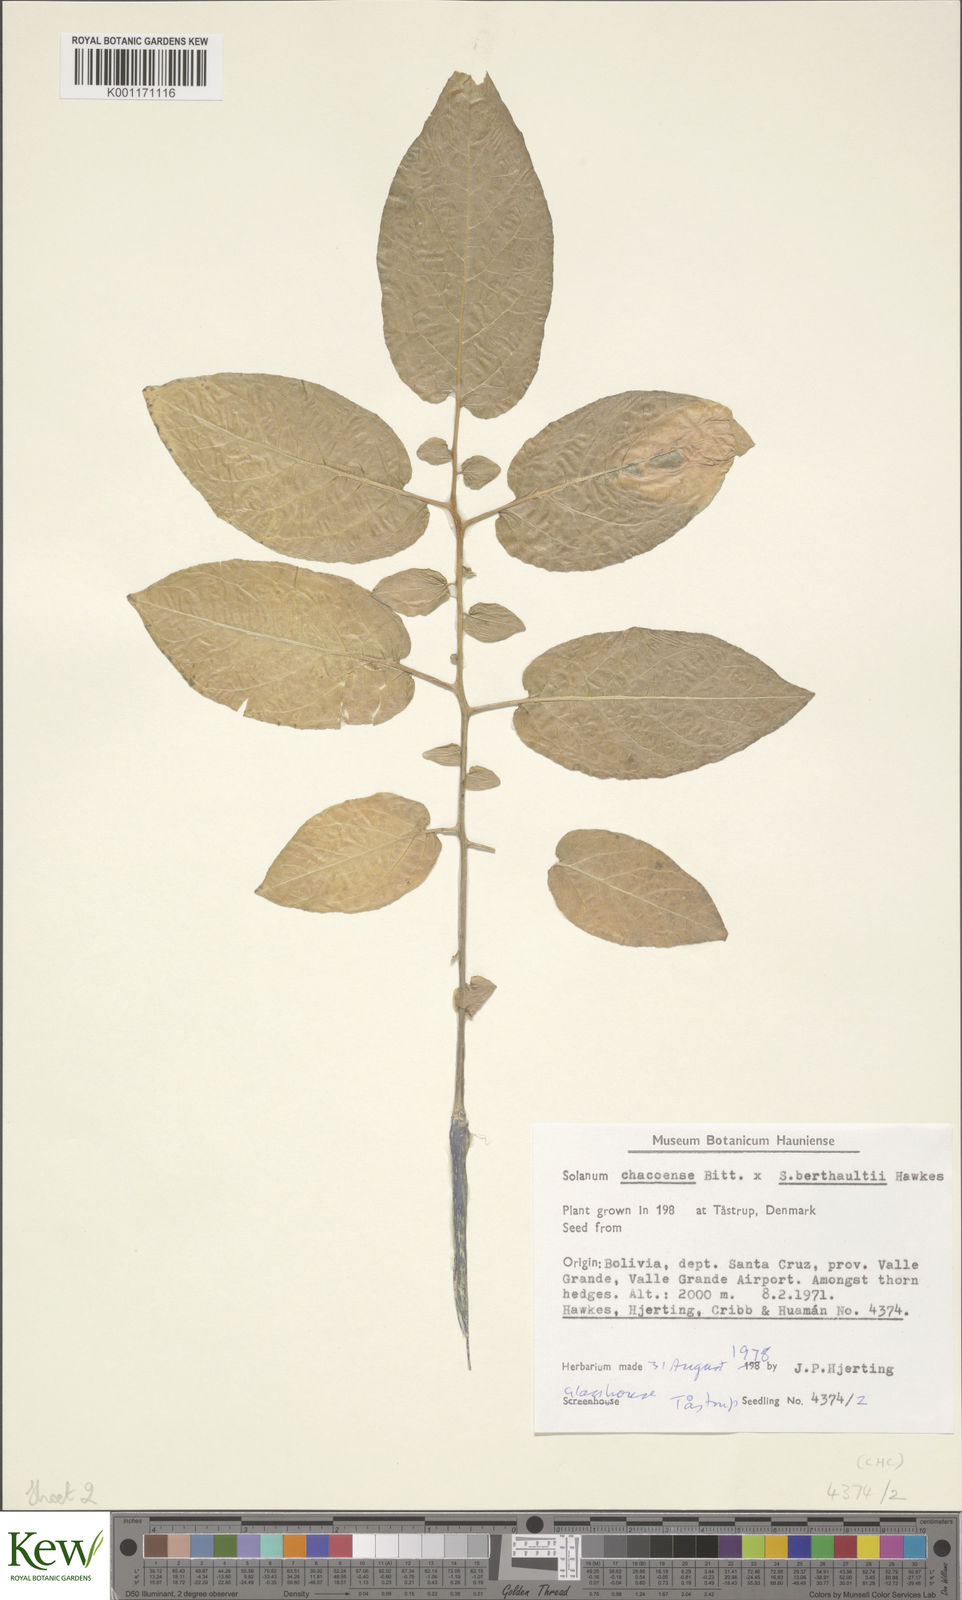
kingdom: Plantae
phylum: Tracheophyta
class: Magnoliopsida
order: Solanales
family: Solanaceae
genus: Solanum
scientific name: Solanum chacoense
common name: Chaco potato
